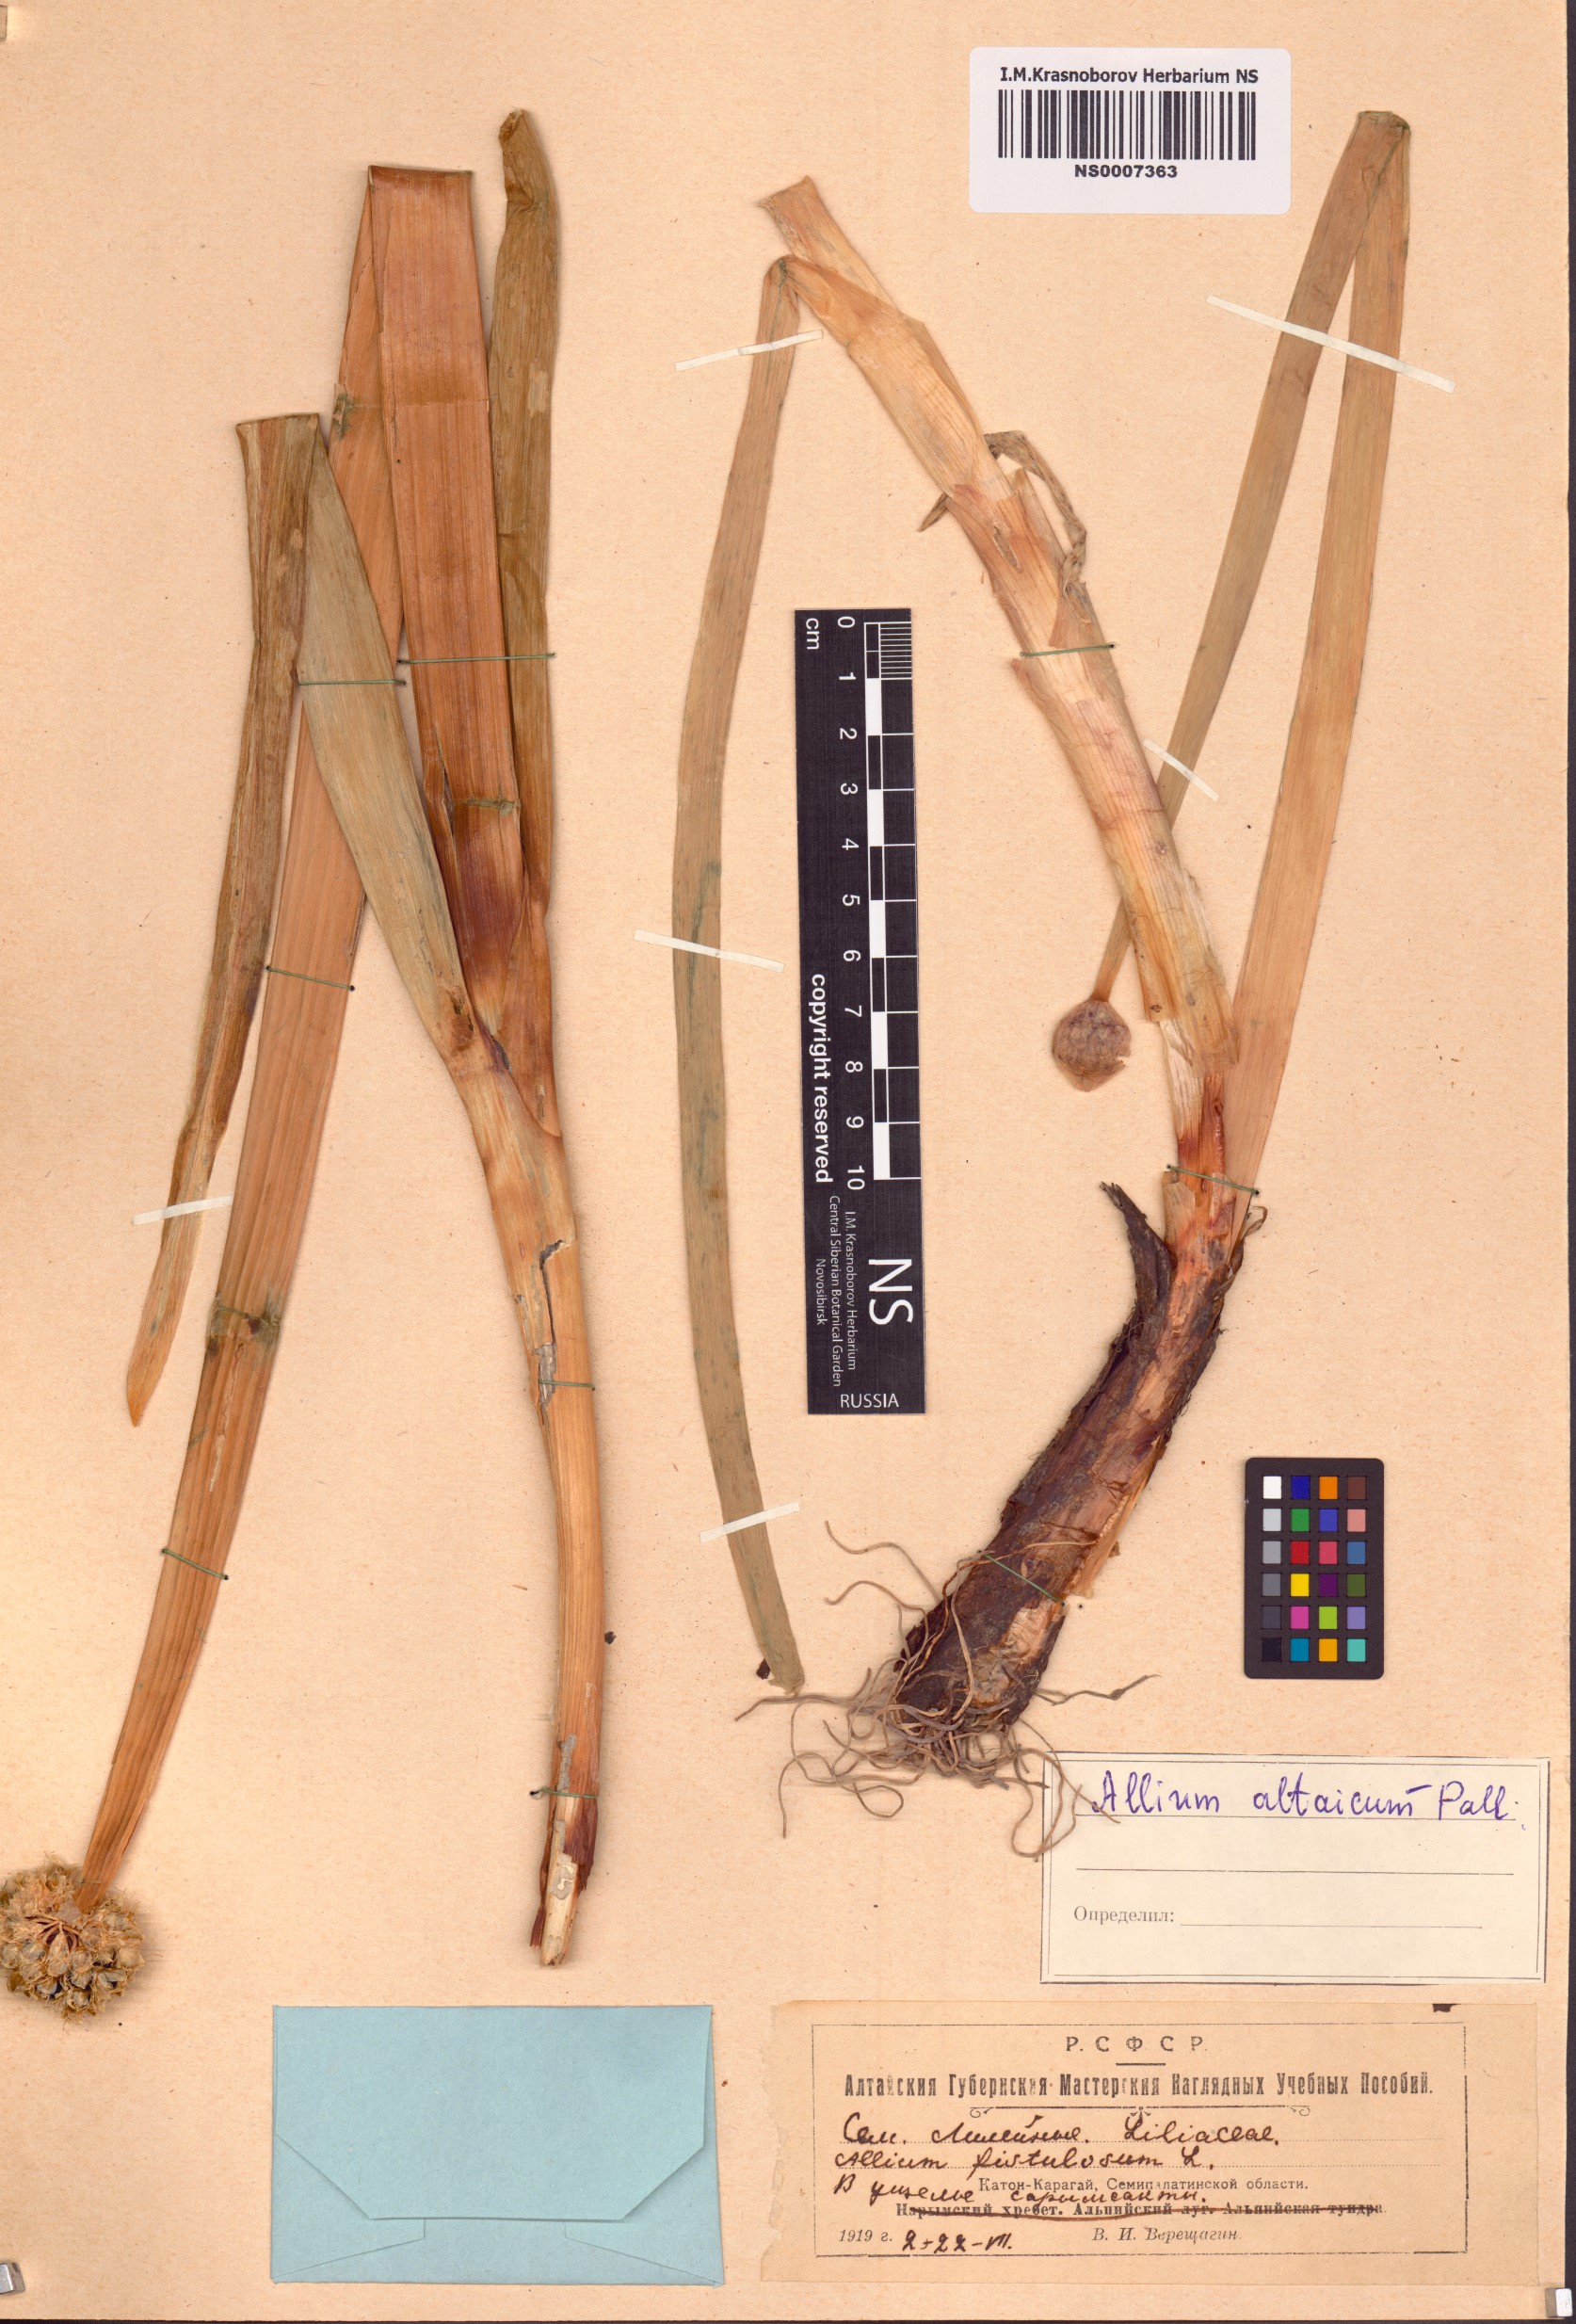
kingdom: Plantae
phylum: Tracheophyta
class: Liliopsida
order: Asparagales
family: Amaryllidaceae
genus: Allium
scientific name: Allium altaicum
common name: Altai onion
